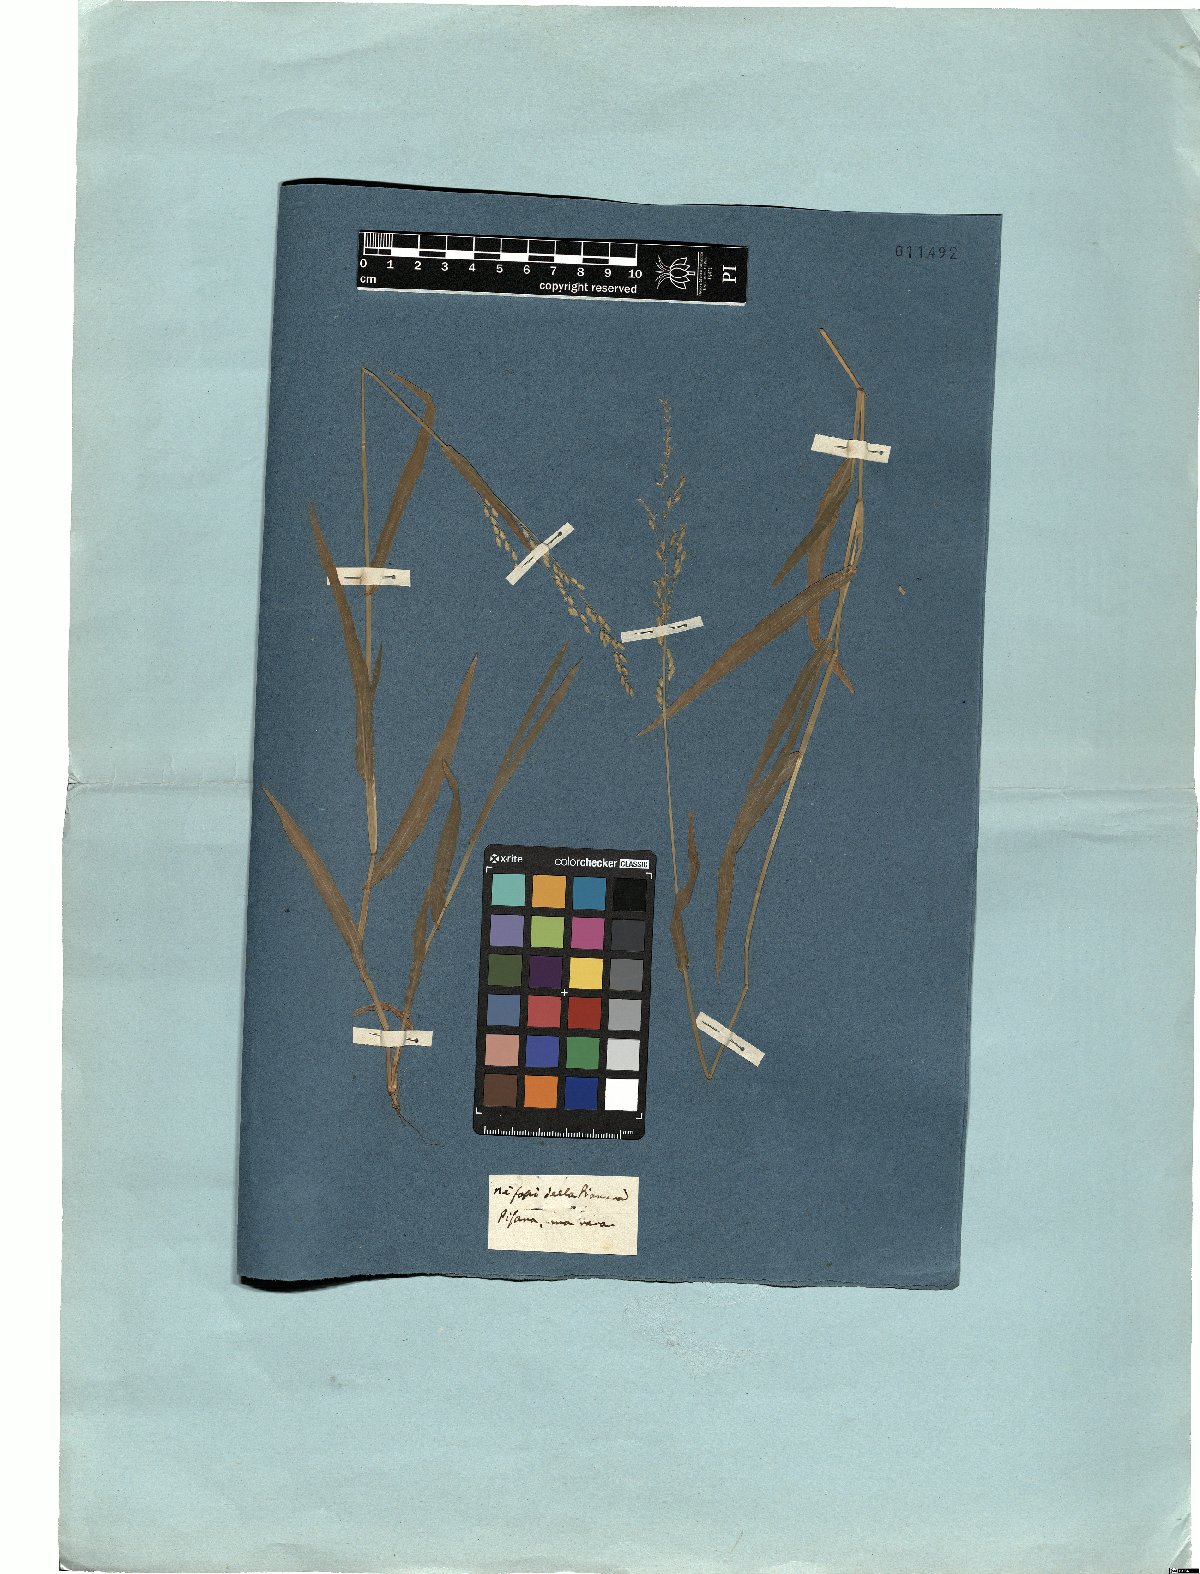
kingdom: Plantae
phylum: Tracheophyta
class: Liliopsida
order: Poales
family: Poaceae
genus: Ehrharta
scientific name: Ehrharta erecta
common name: Panic veldtgrass
